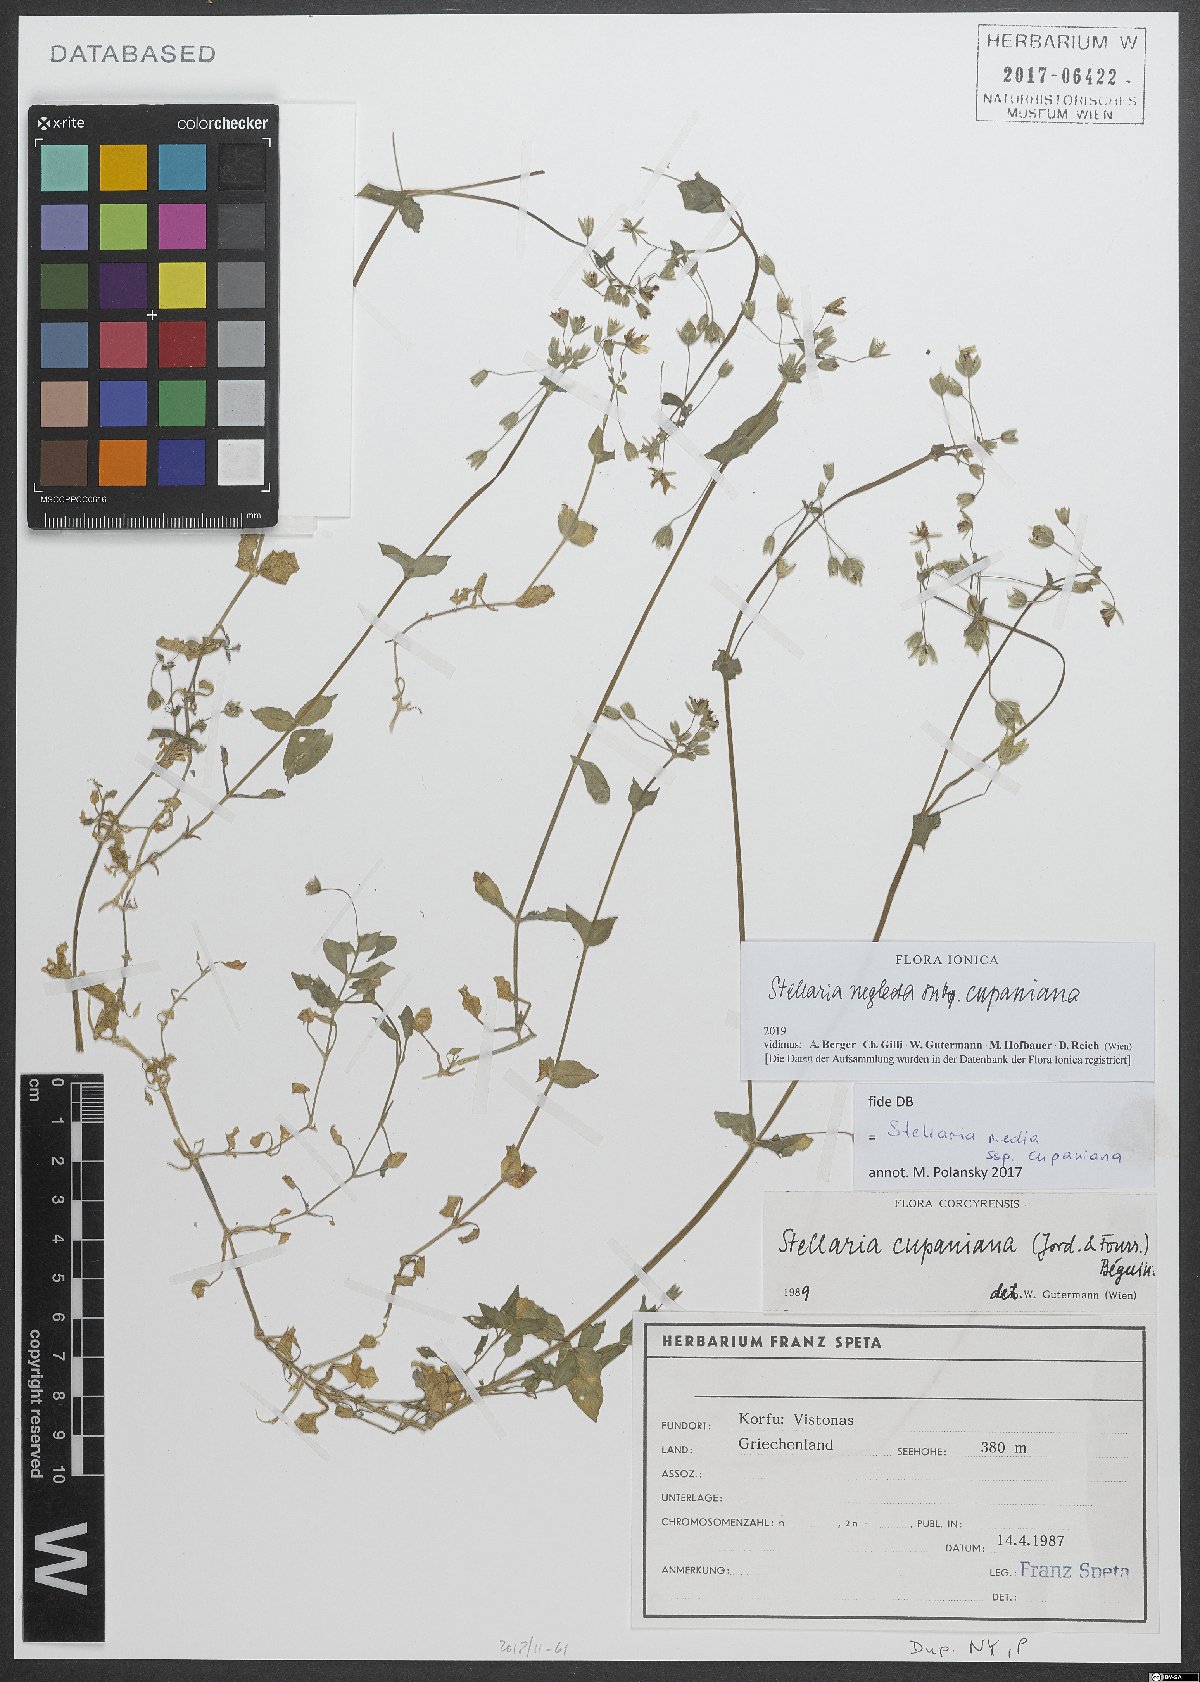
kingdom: Plantae
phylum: Tracheophyta
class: Magnoliopsida
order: Caryophyllales
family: Caryophyllaceae
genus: Stellaria
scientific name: Stellaria cupaniana
